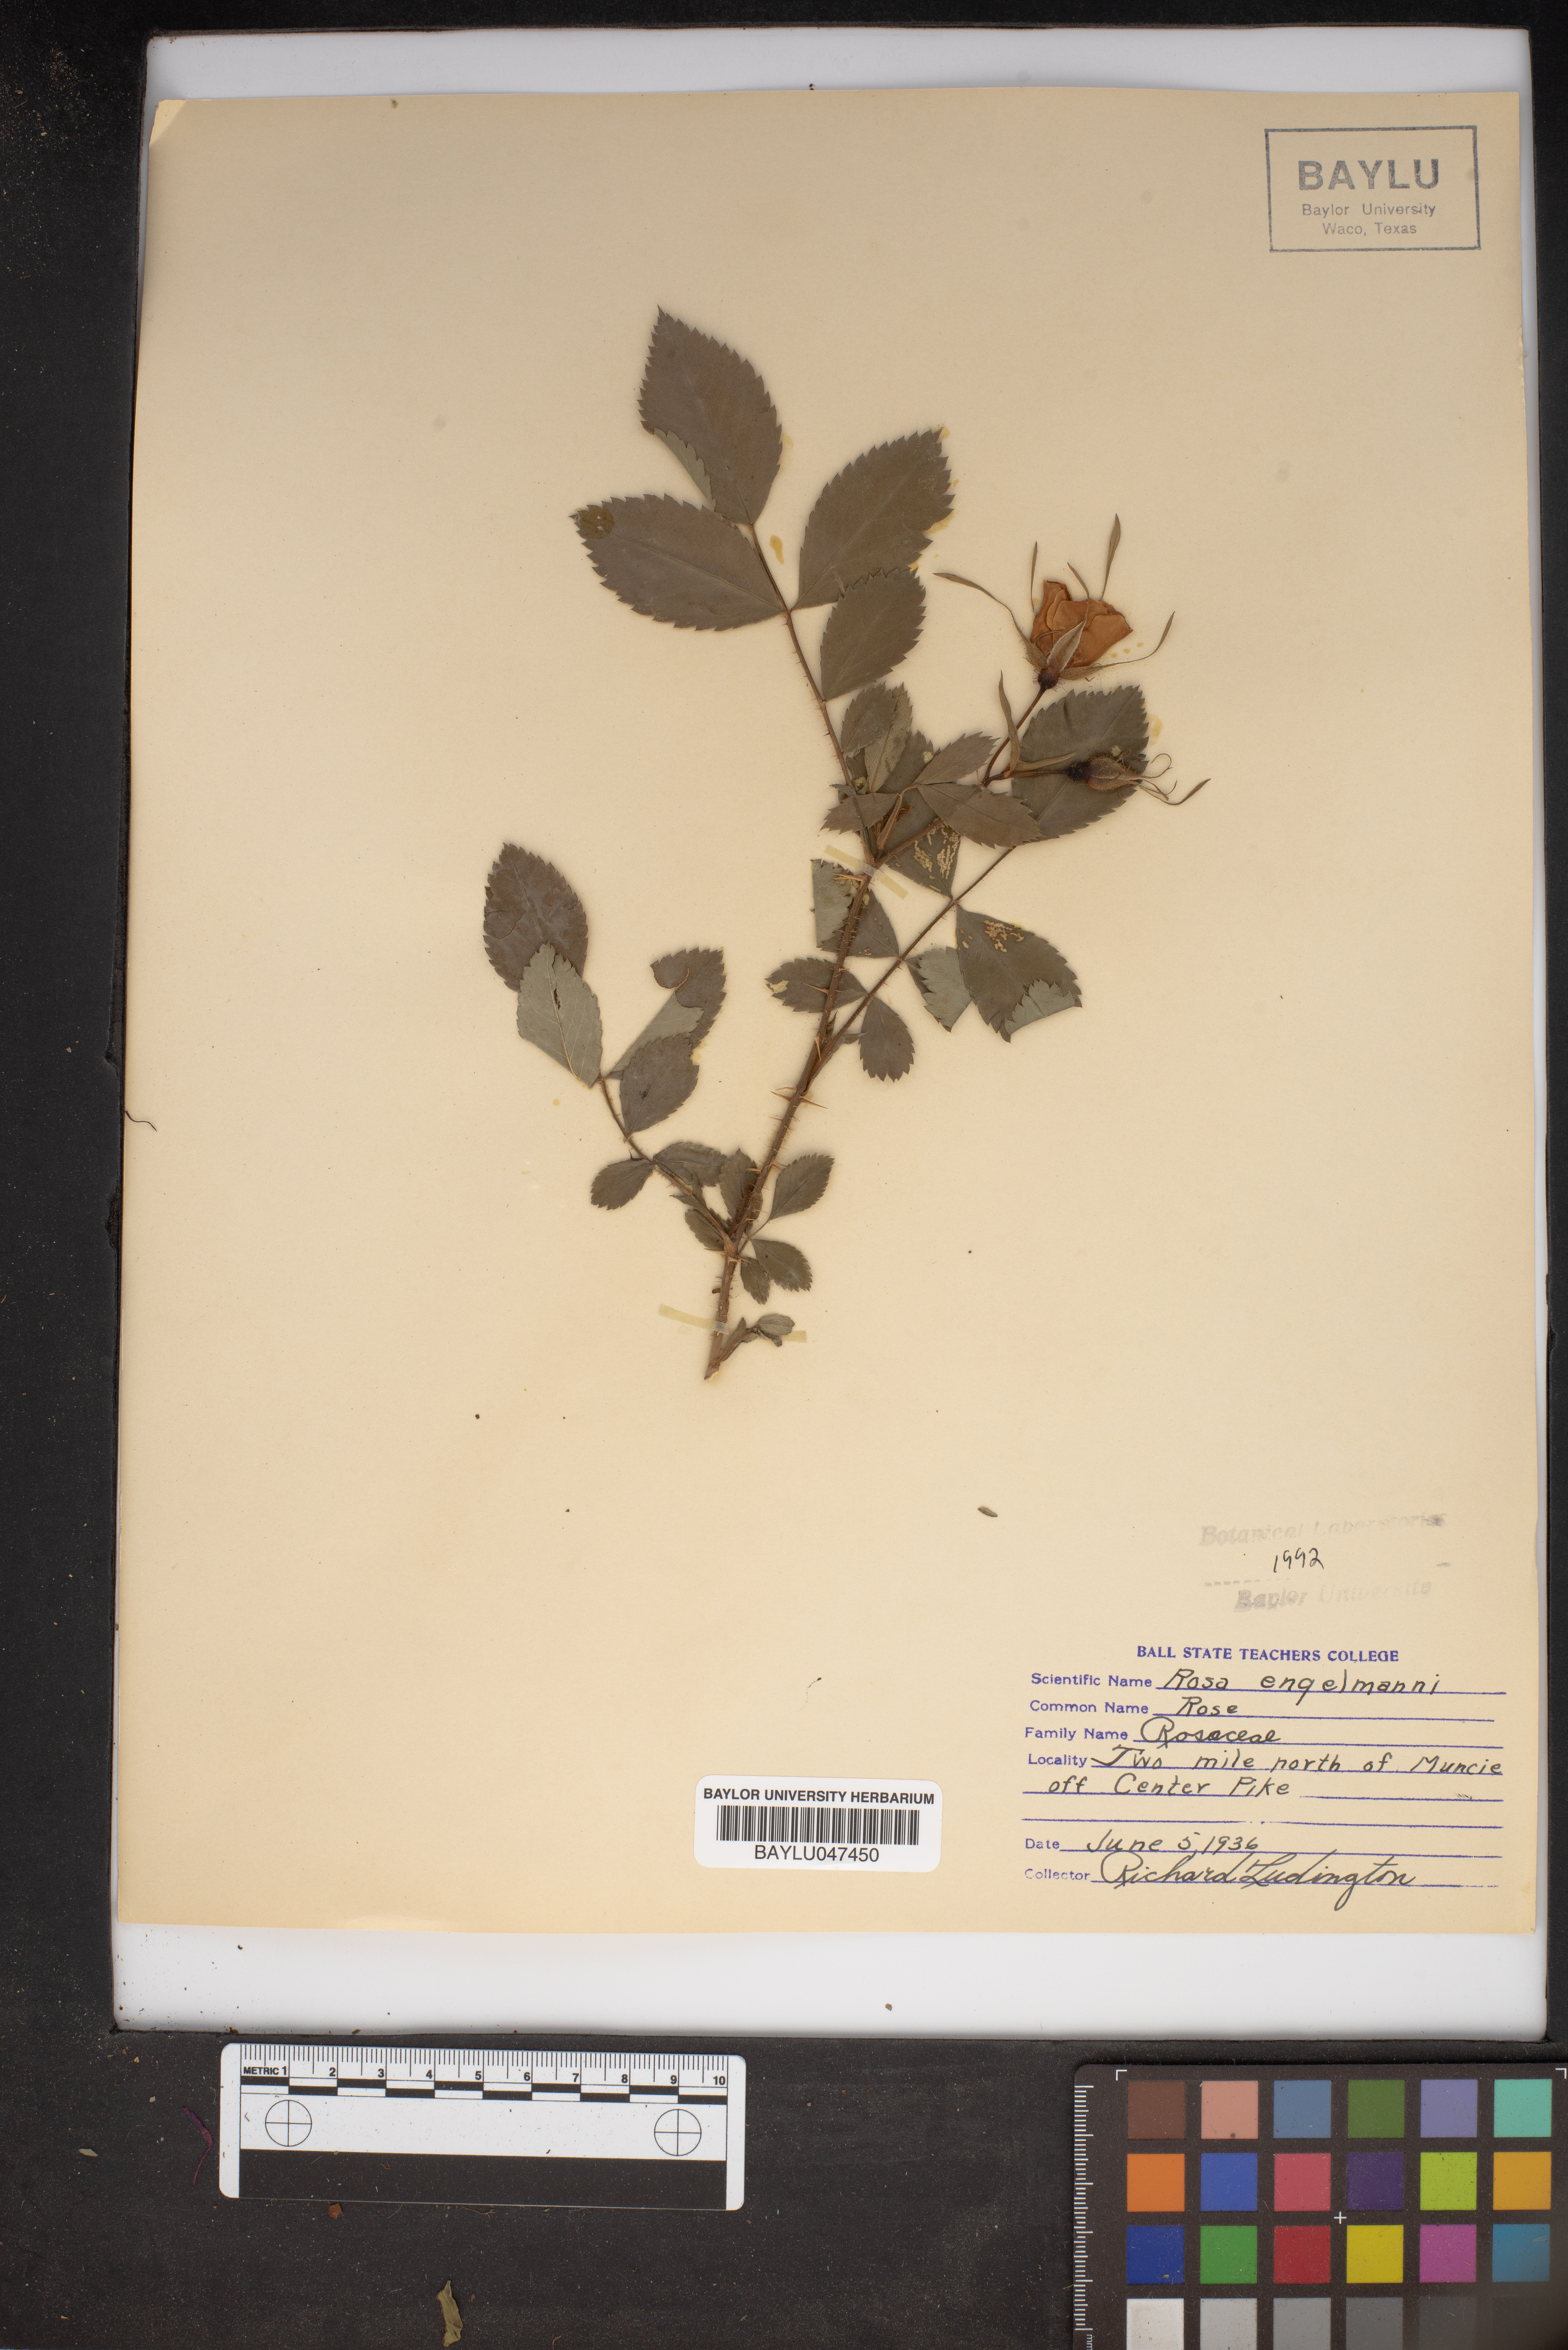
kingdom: Plantae
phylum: Tracheophyta
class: Magnoliopsida
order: Rosales
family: Rosaceae
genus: Rosa
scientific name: Rosa engelmannii
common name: Engelmann's rose
